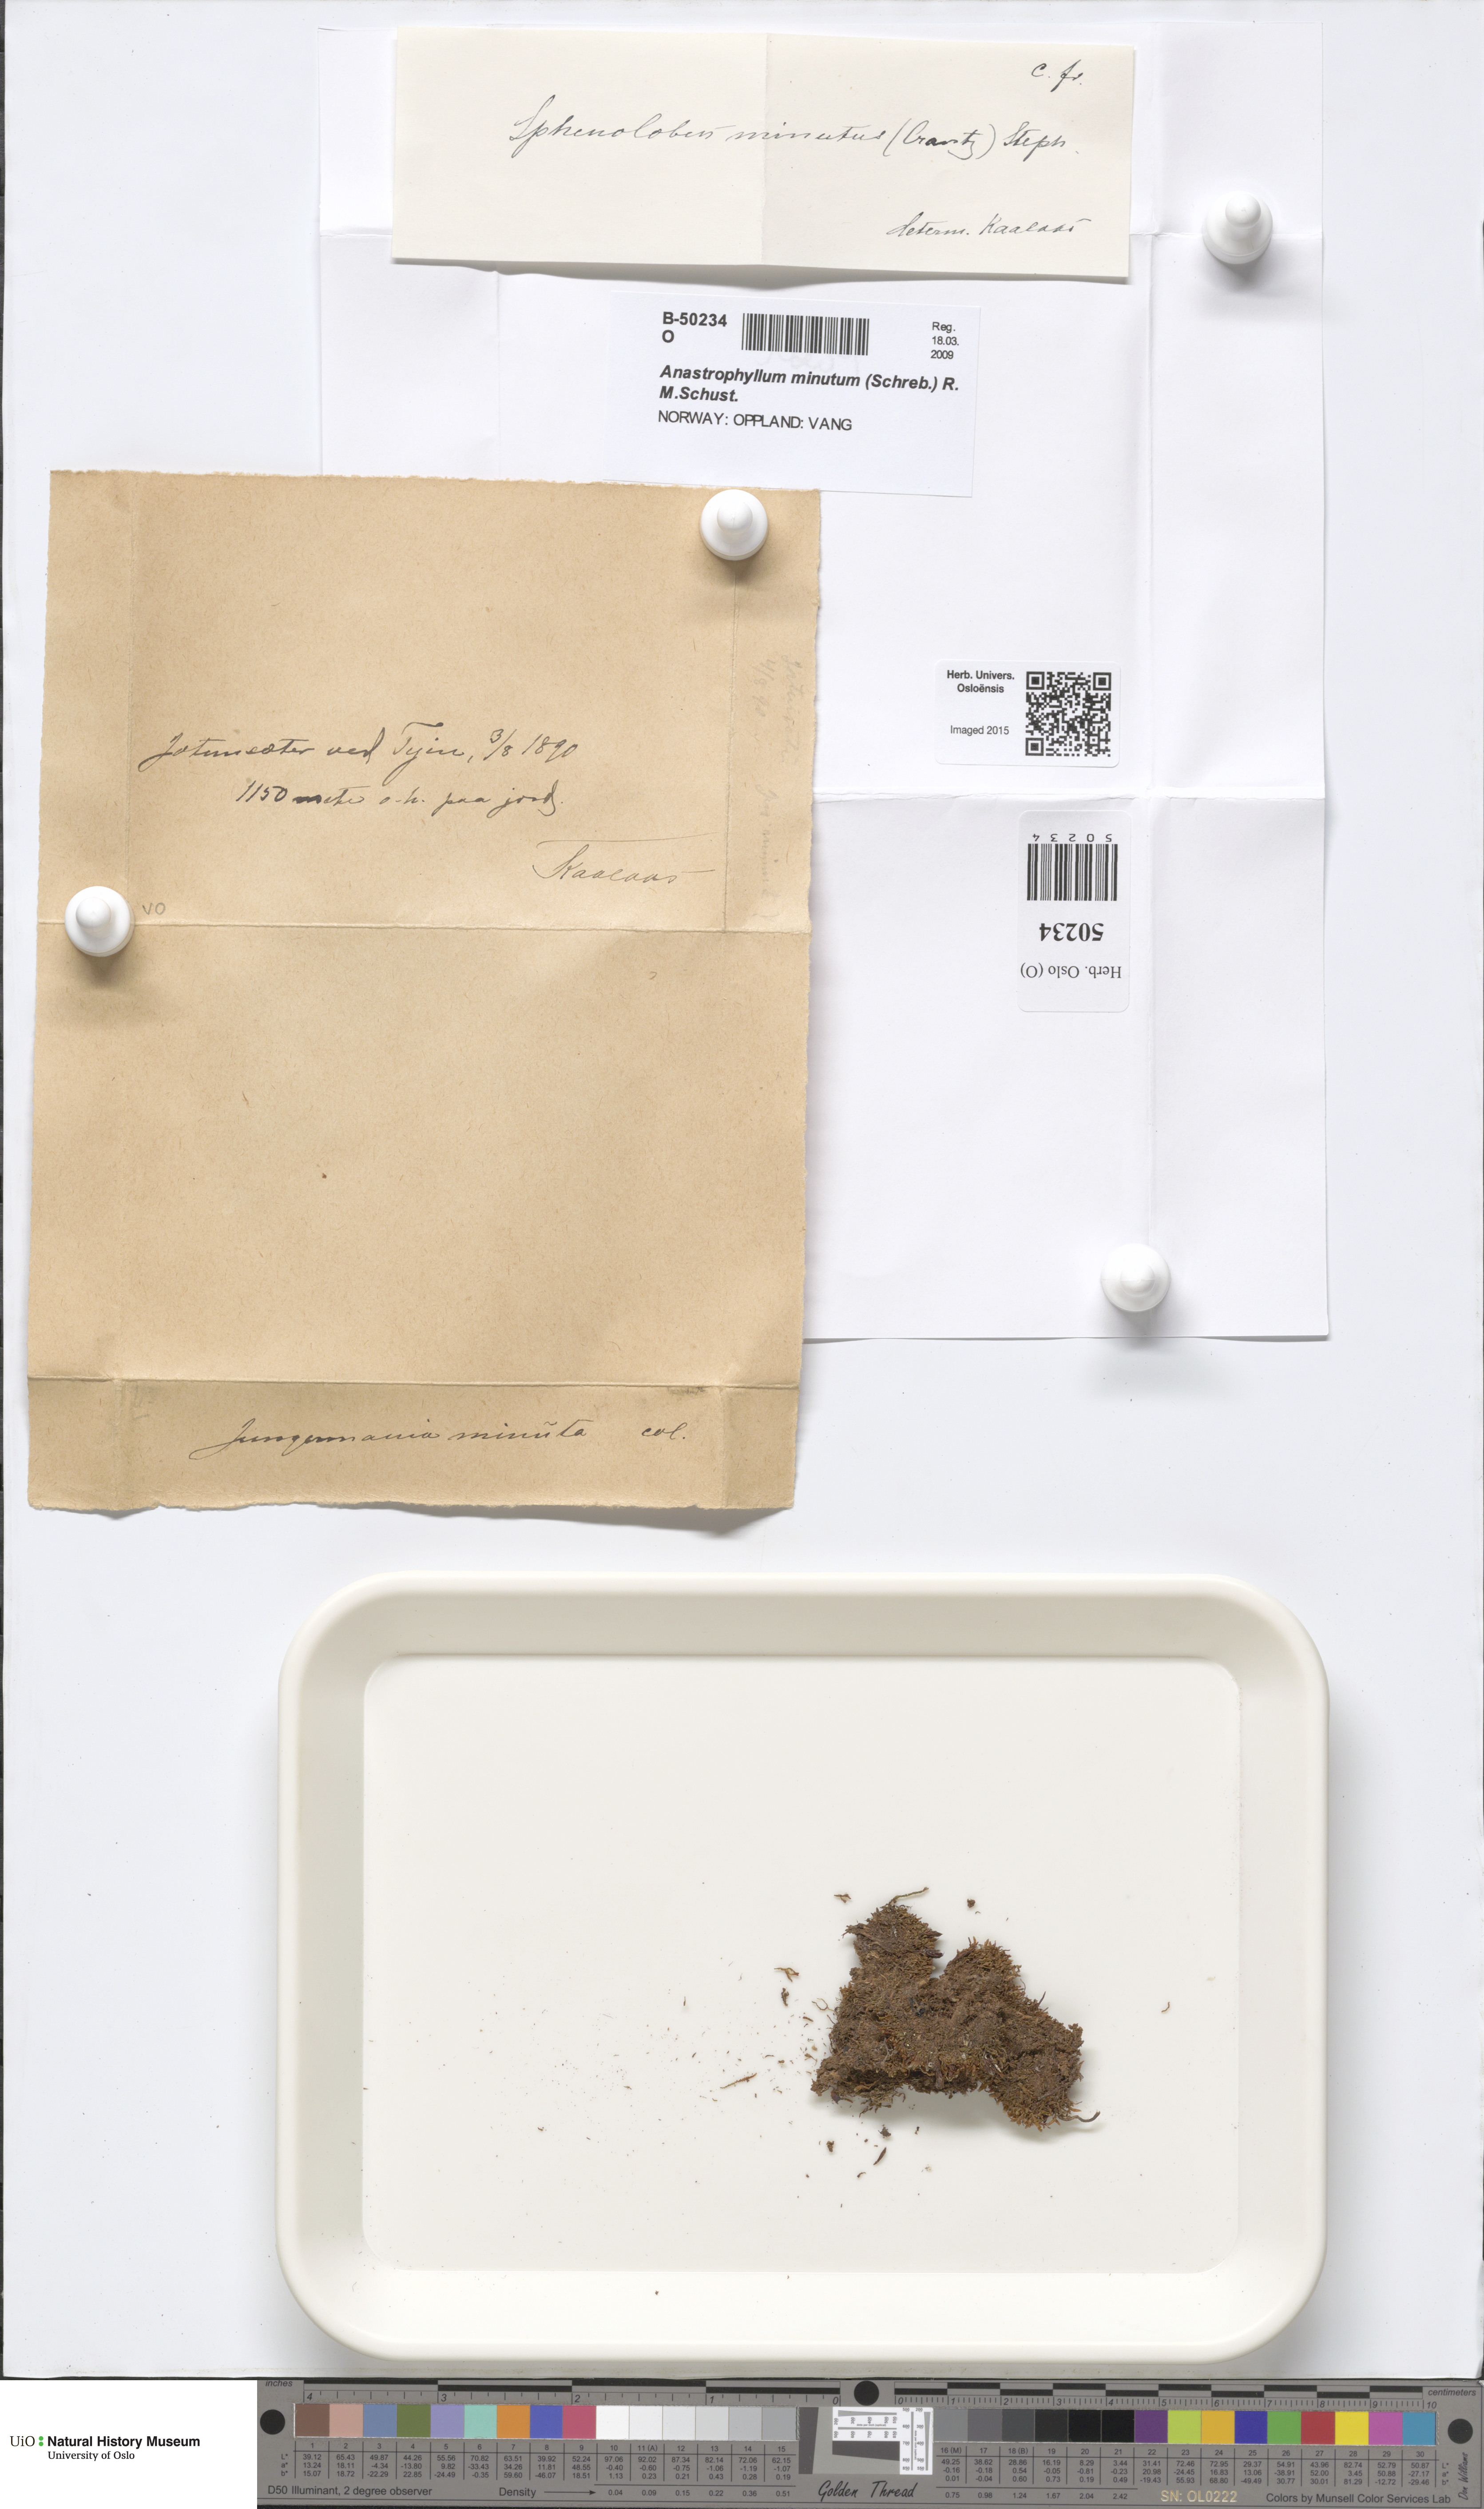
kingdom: Plantae
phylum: Marchantiophyta
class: Jungermanniopsida
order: Jungermanniales
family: Anastrophyllaceae
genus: Sphenolobus
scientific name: Sphenolobus minutus
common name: Comb notchwort
